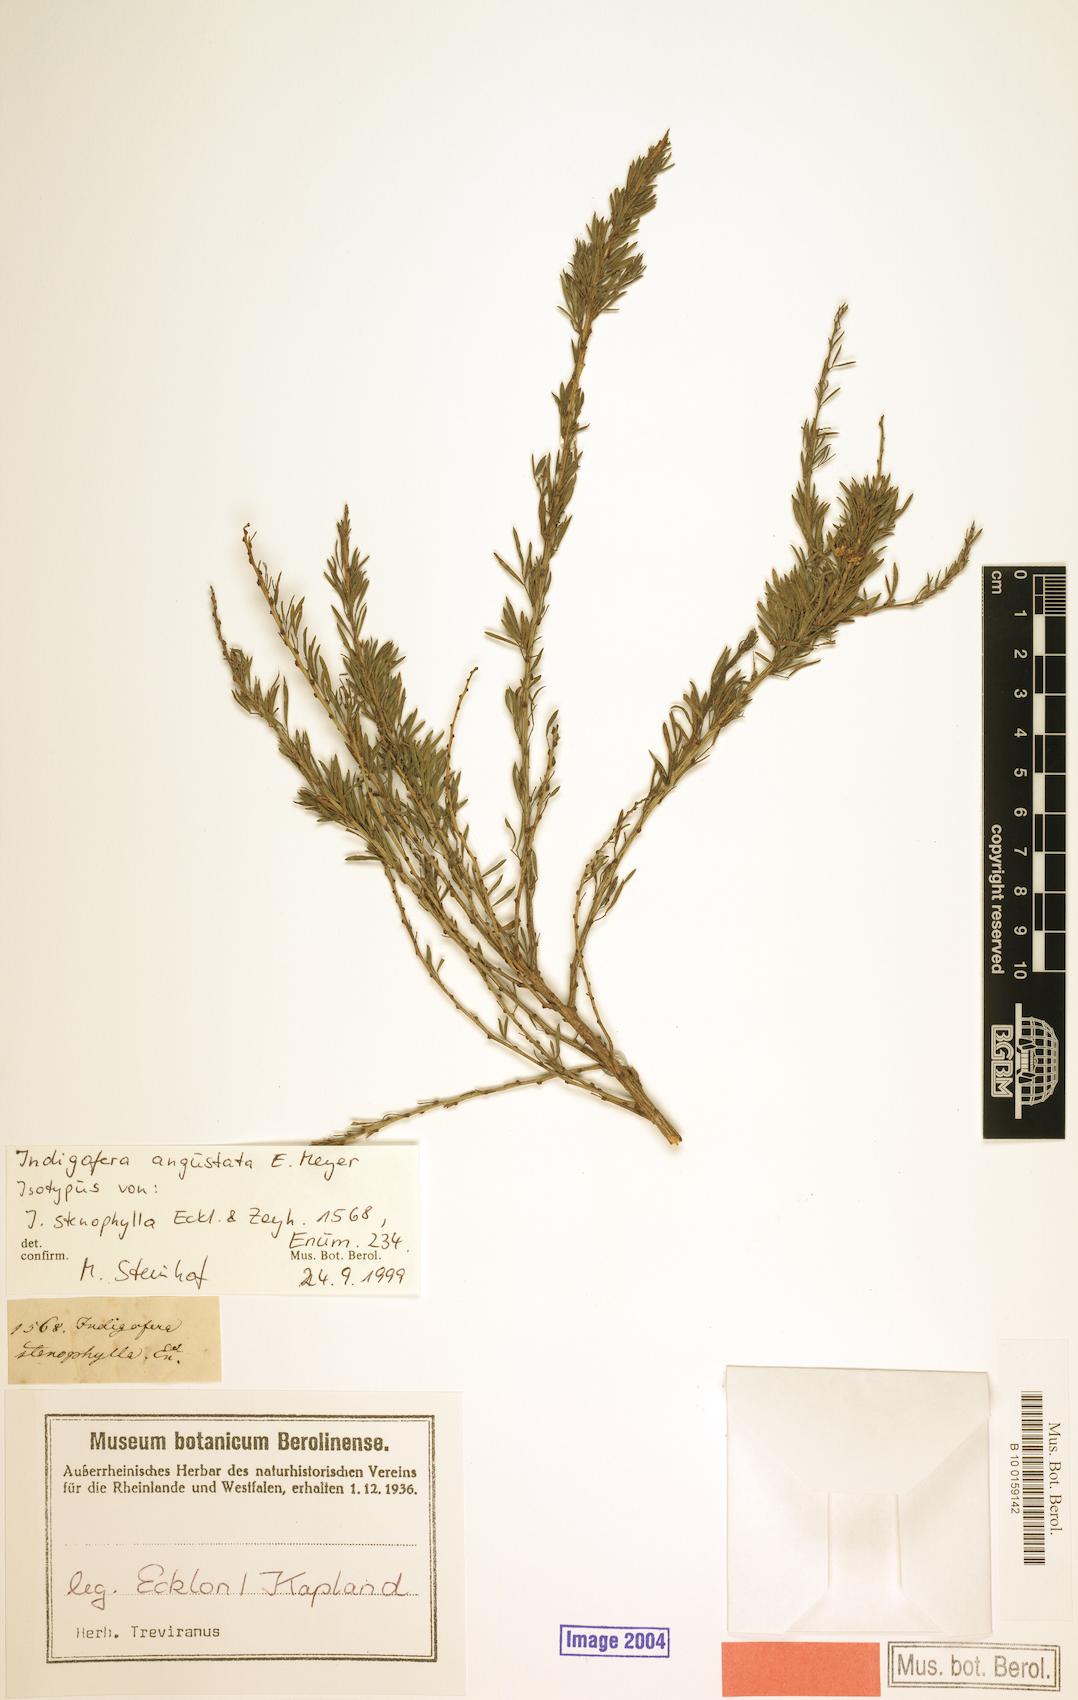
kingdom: Plantae
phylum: Tracheophyta
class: Magnoliopsida
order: Fabales
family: Fabaceae
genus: Indigofera
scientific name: Indigofera angustata
